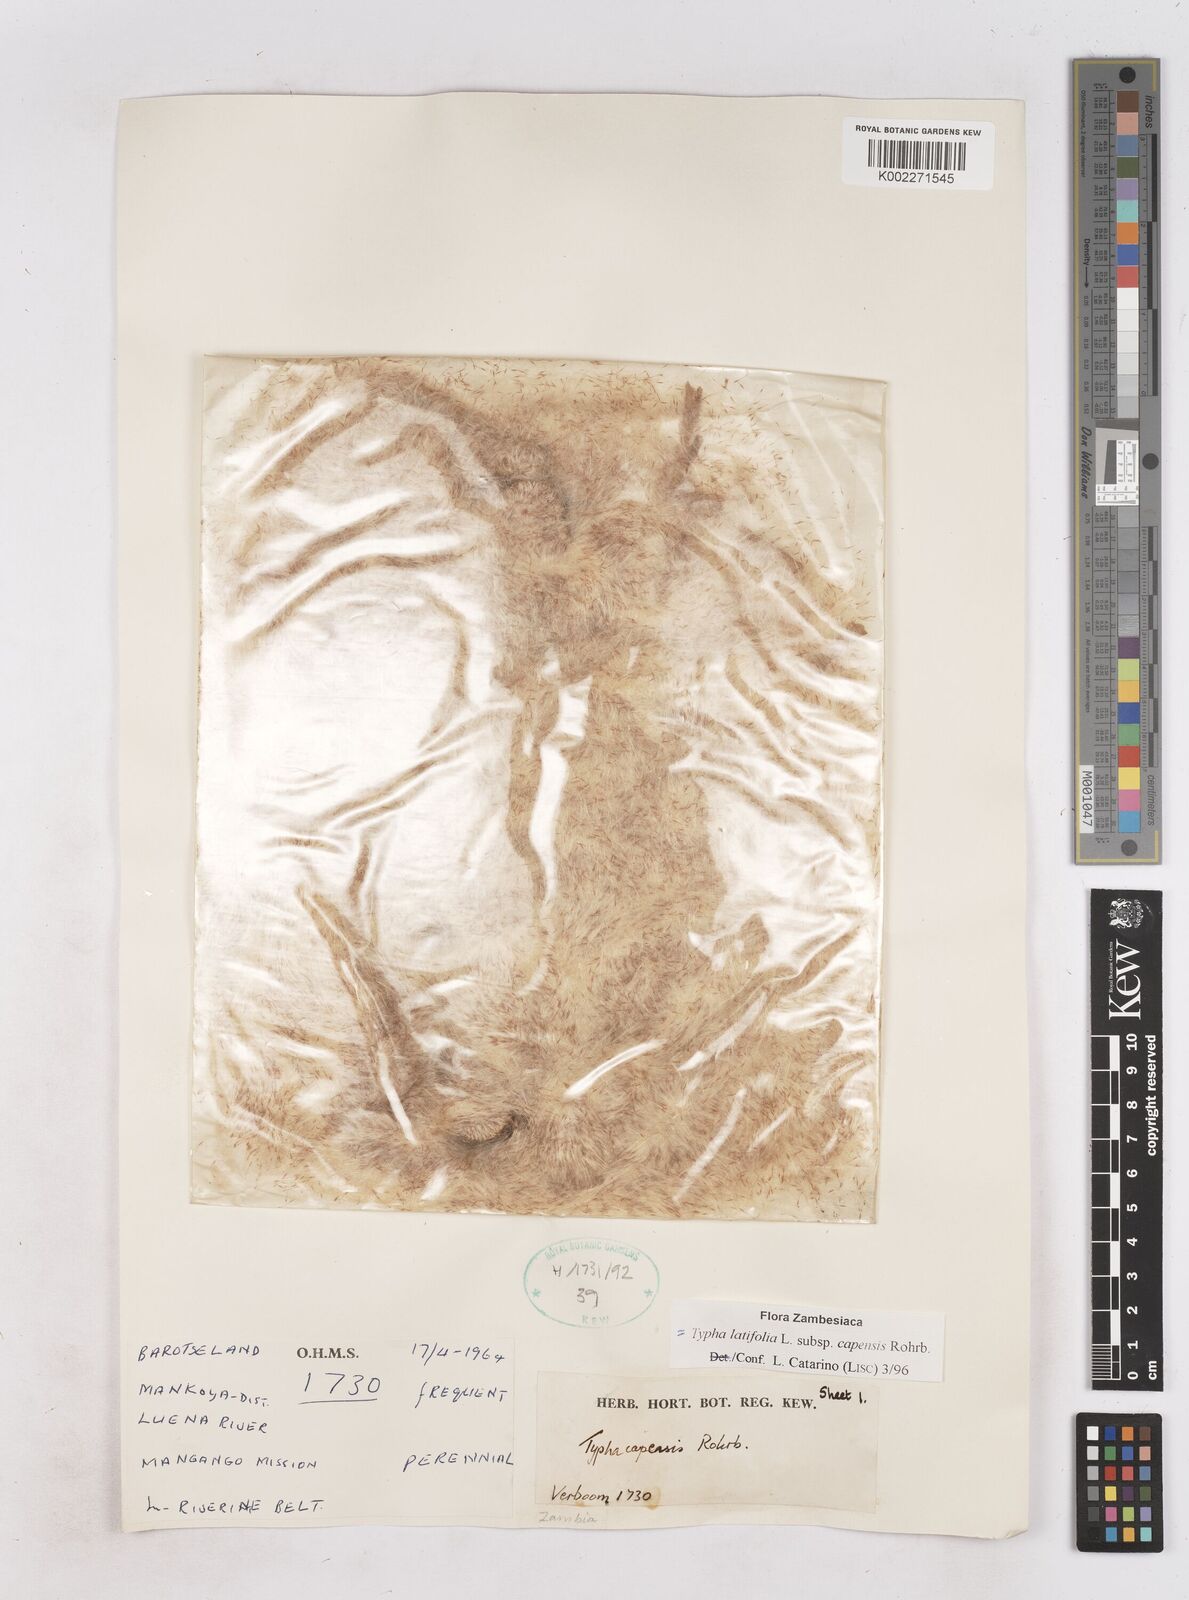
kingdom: Plantae
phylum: Tracheophyta
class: Liliopsida
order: Poales
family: Typhaceae
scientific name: Typhaceae
